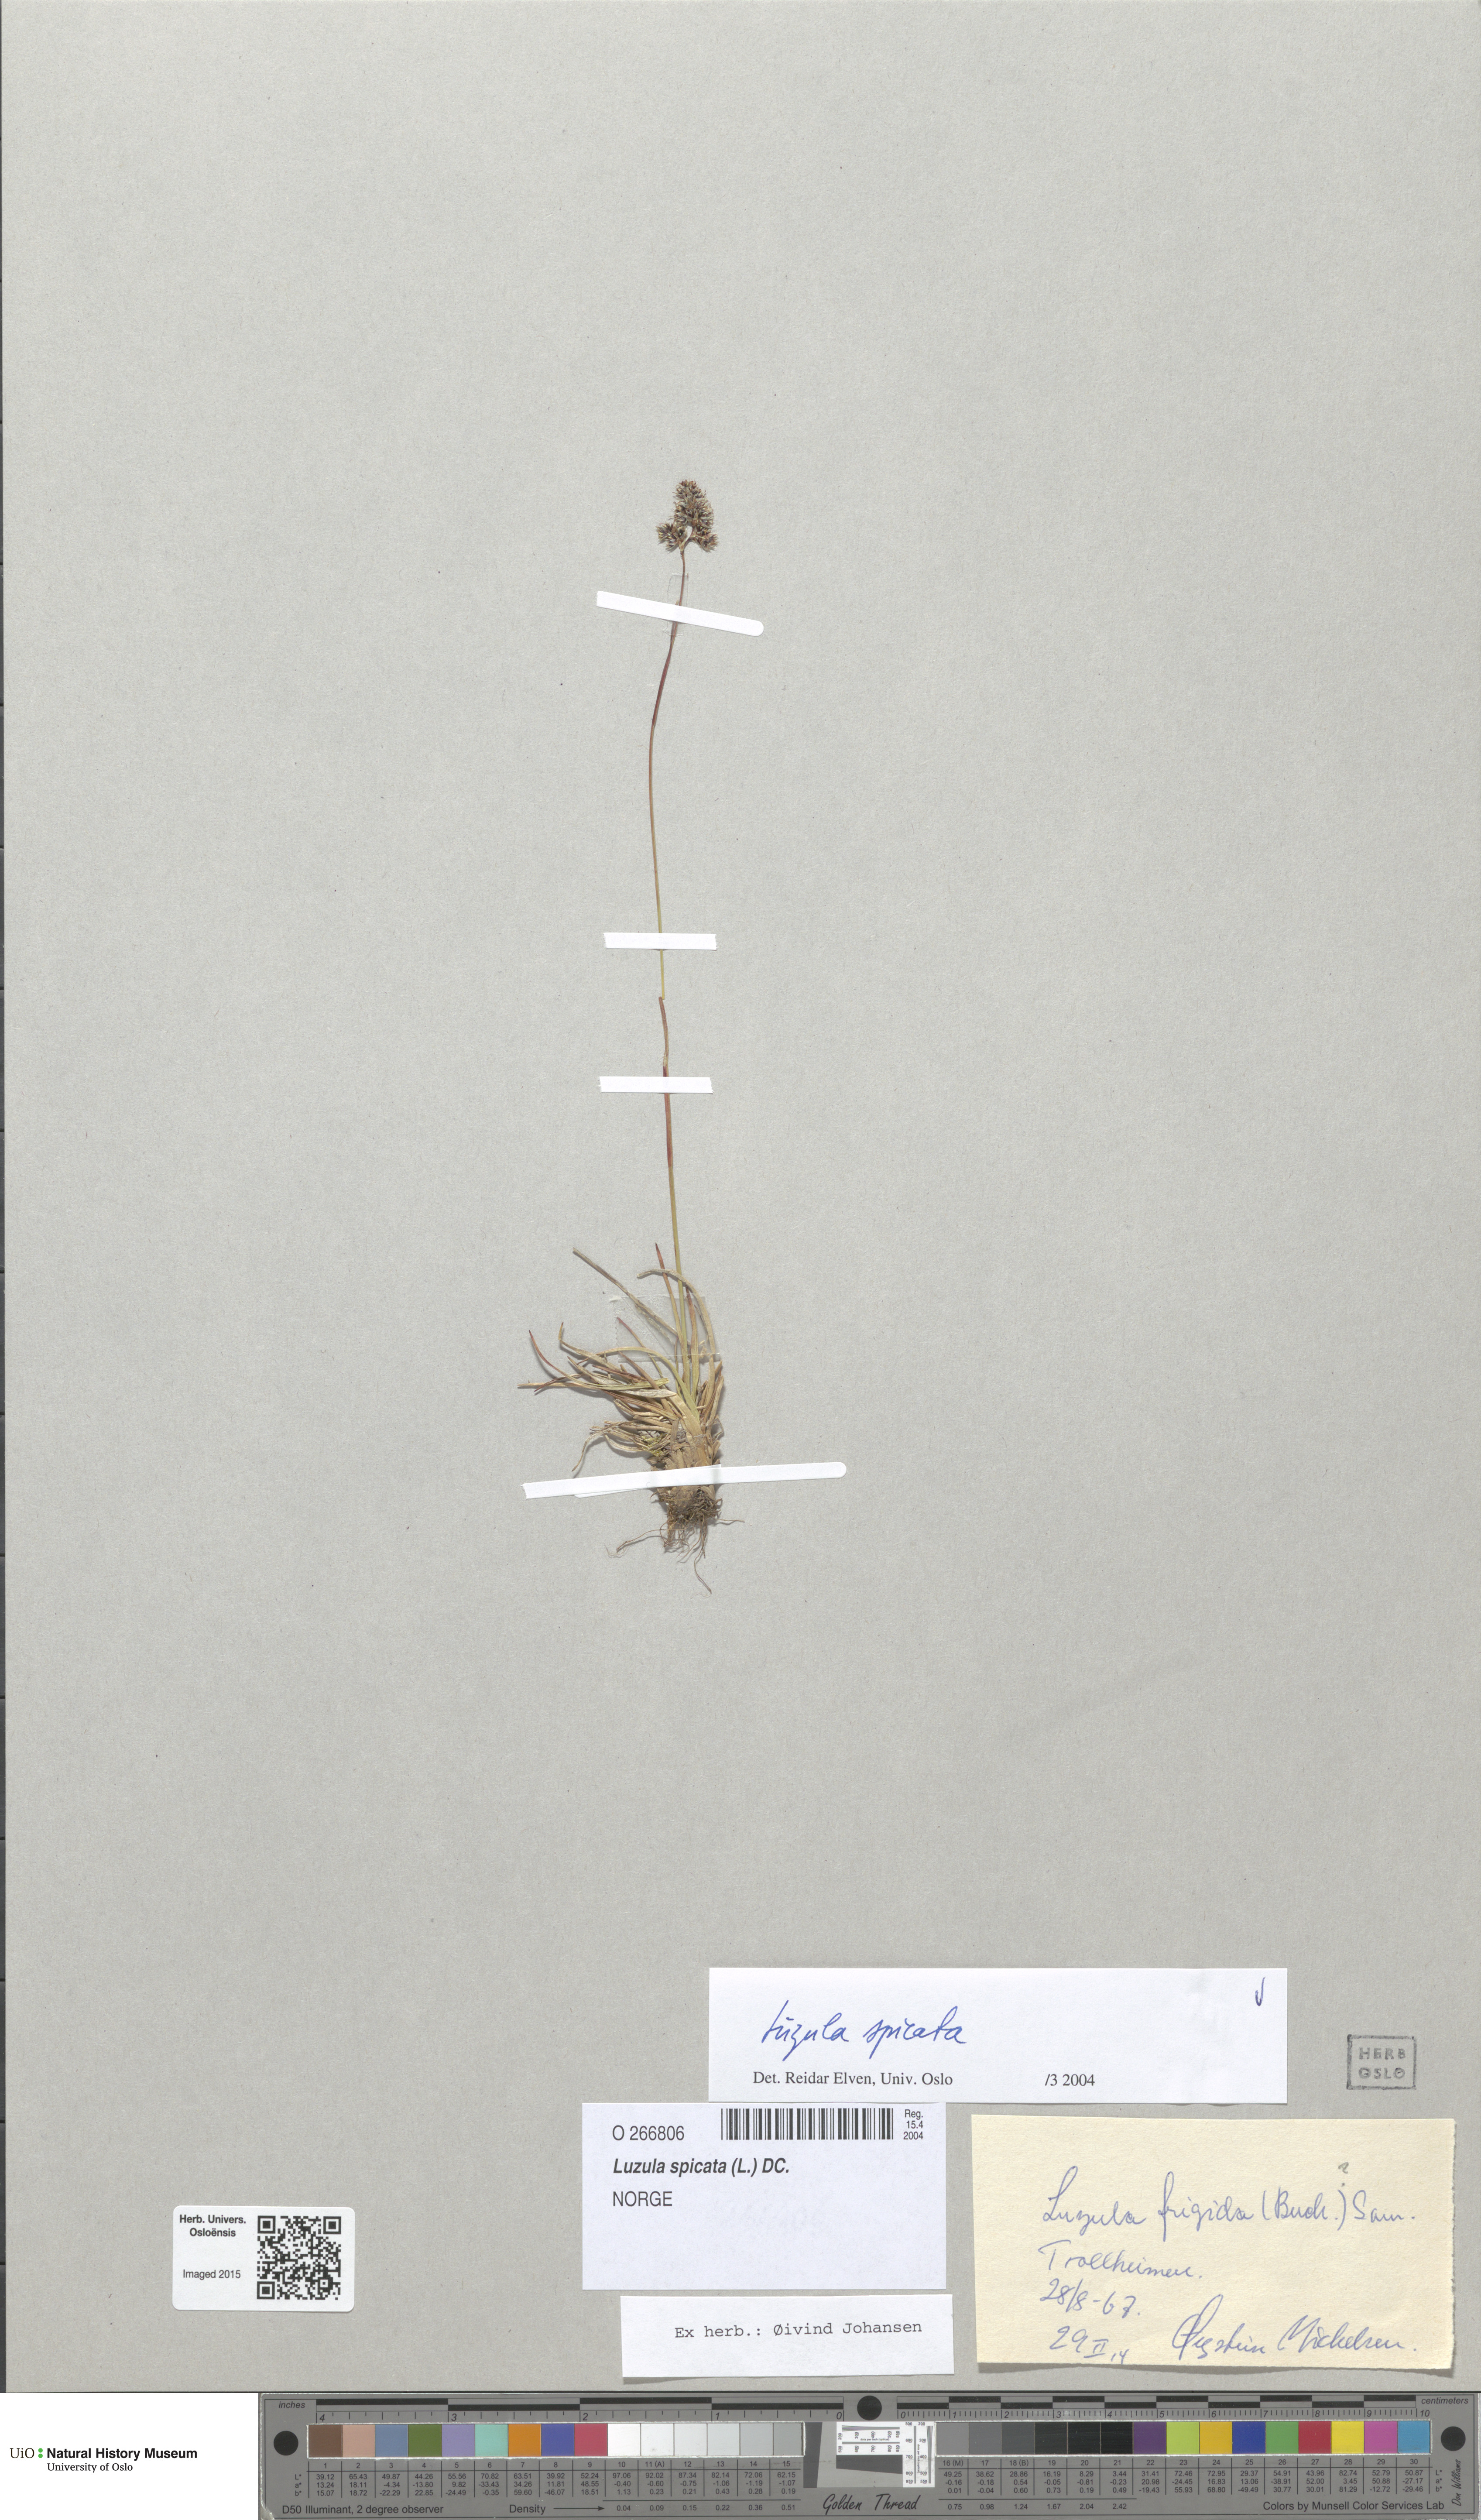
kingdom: Plantae
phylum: Tracheophyta
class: Liliopsida
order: Poales
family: Juncaceae
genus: Luzula
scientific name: Luzula spicata
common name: Spiked wood-rush
